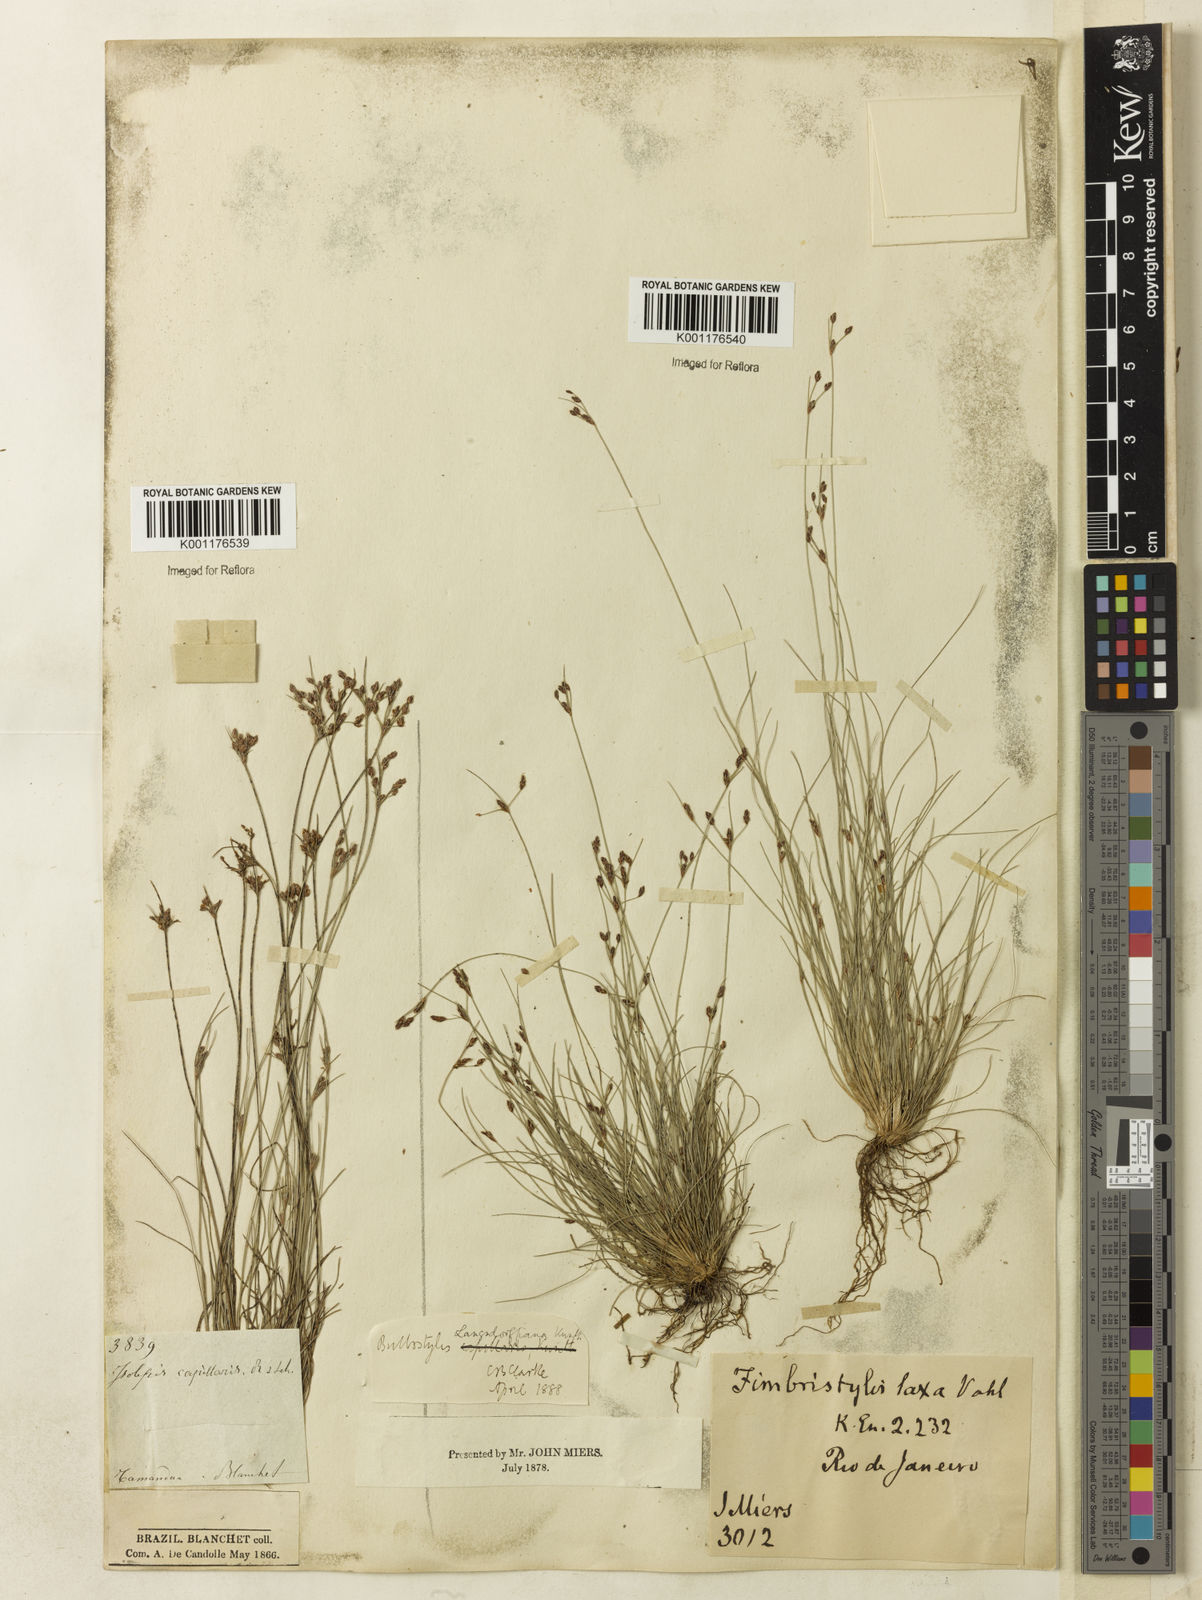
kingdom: Plantae
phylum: Tracheophyta
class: Liliopsida
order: Poales
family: Cyperaceae
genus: Bulbostylis
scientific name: Bulbostylis juncoides
